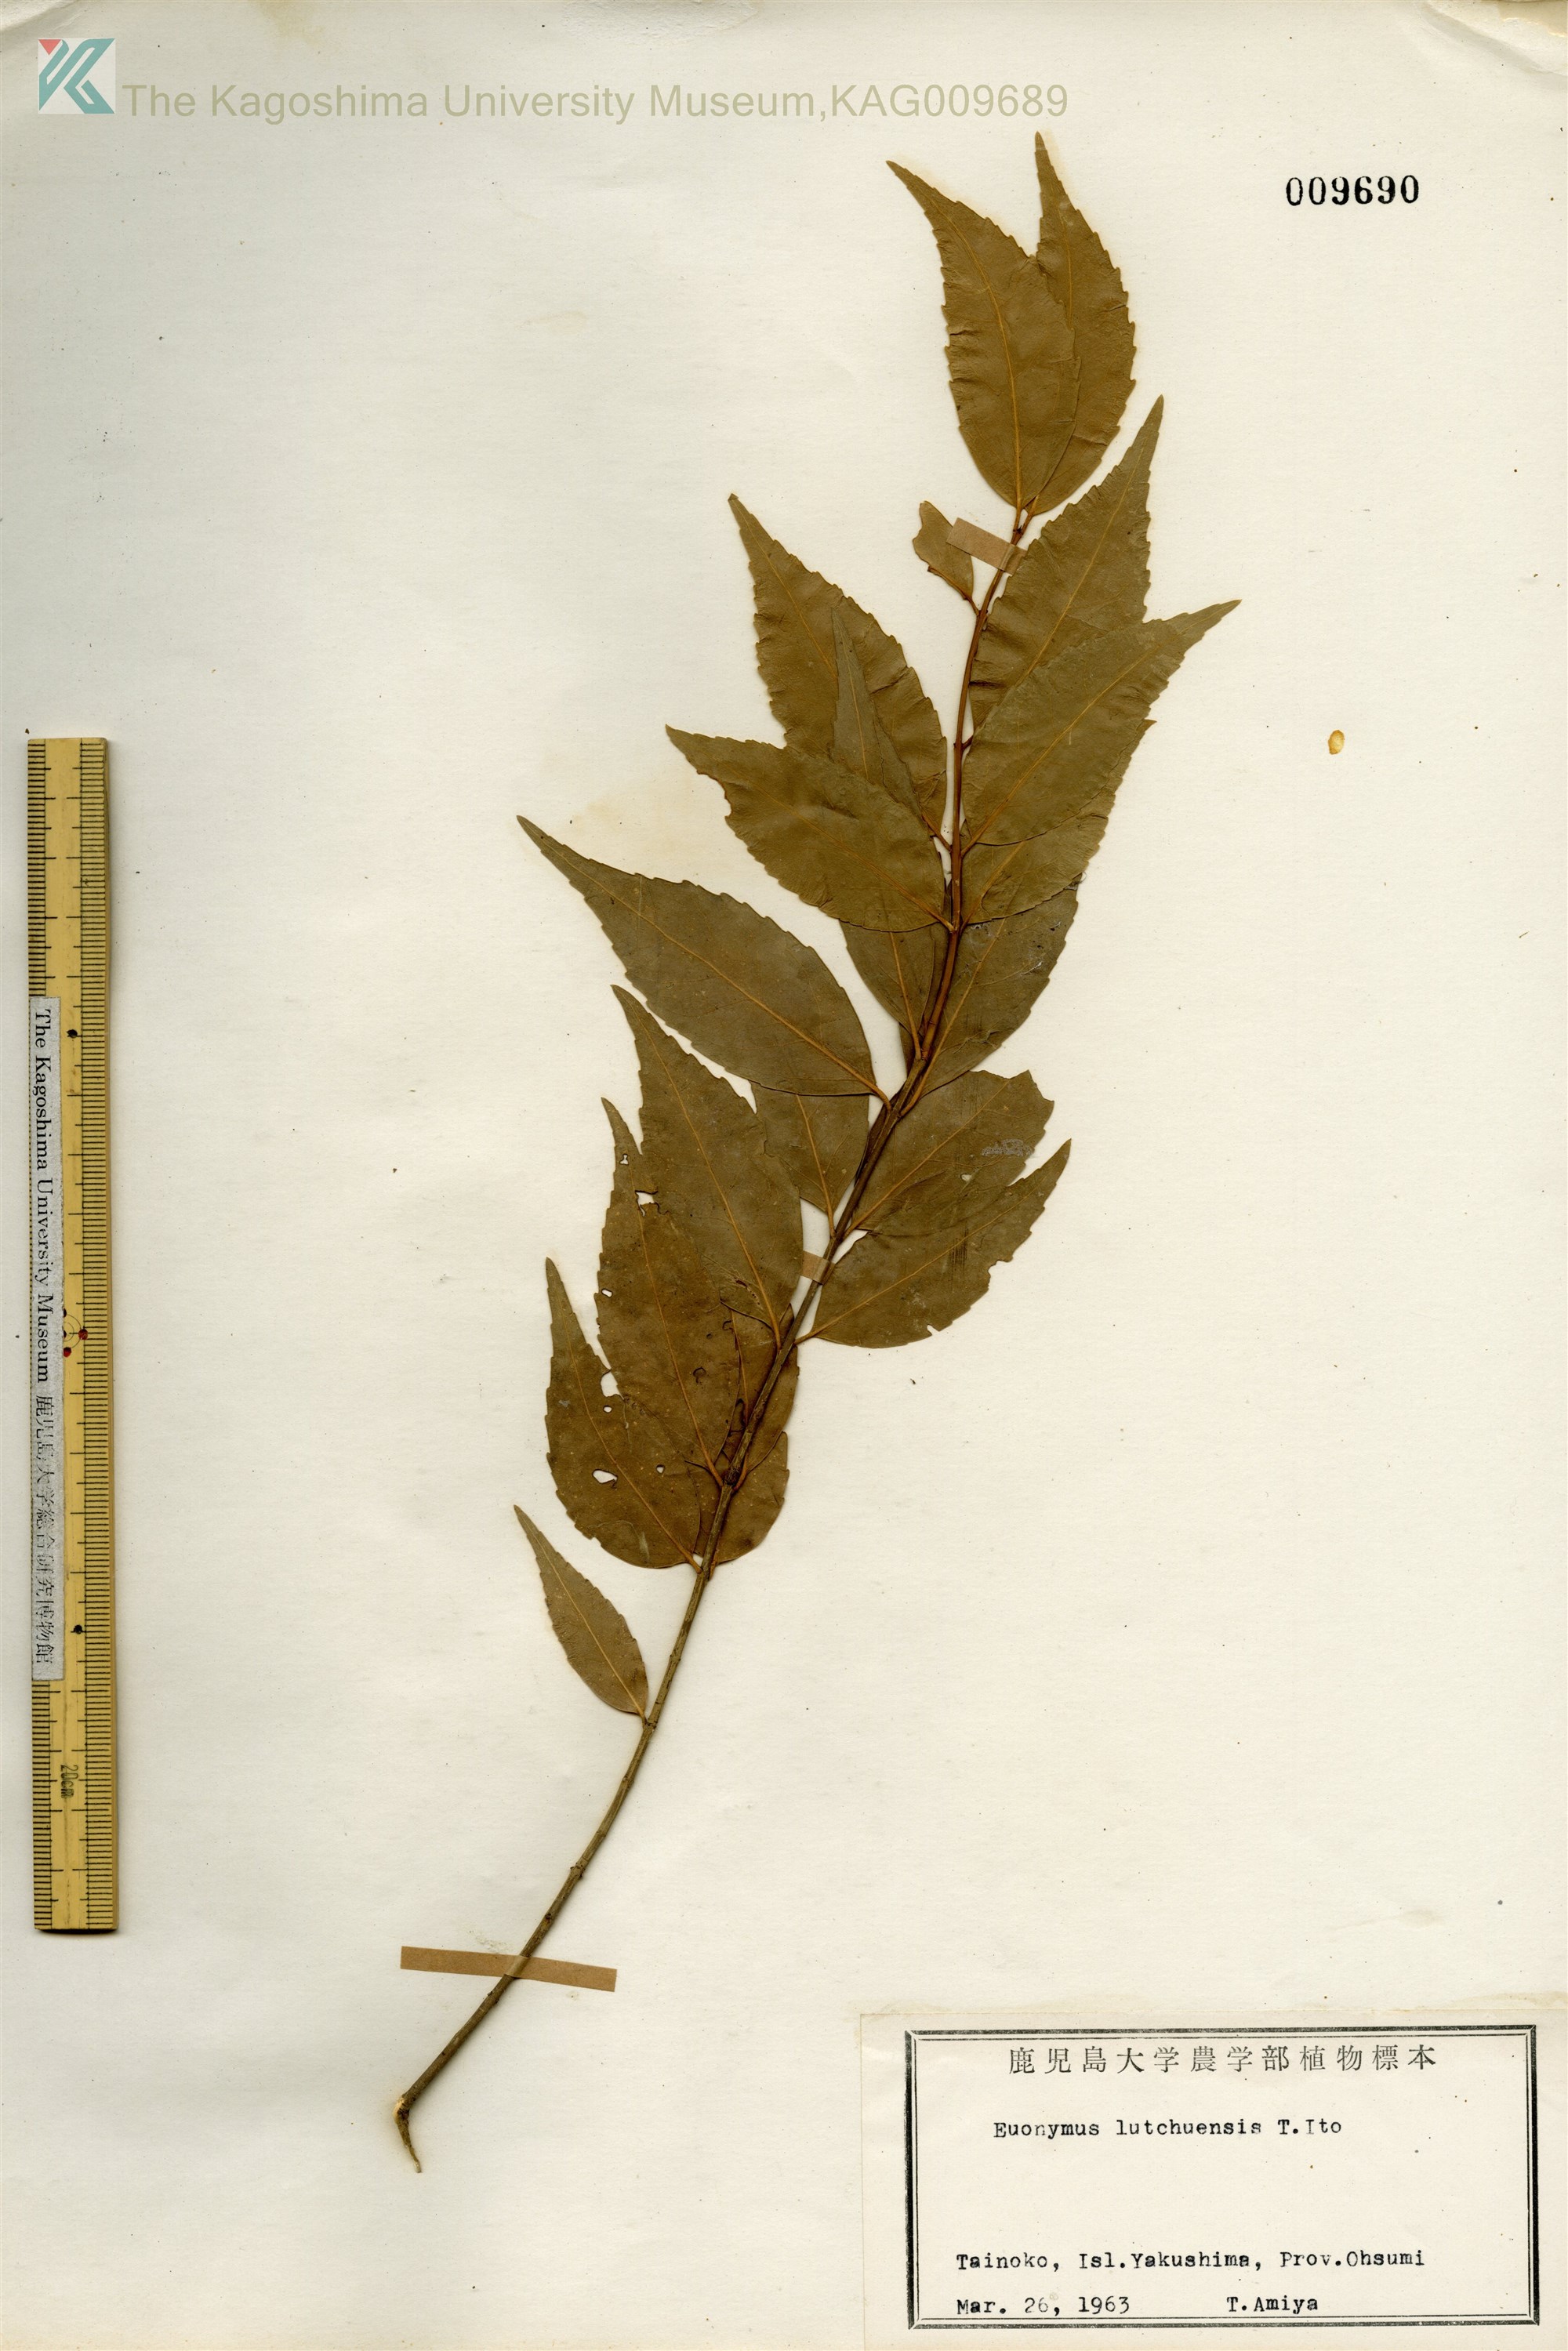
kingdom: Plantae
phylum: Tracheophyta
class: Magnoliopsida
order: Celastrales
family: Celastraceae
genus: Euonymus
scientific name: Euonymus lutchuensis
